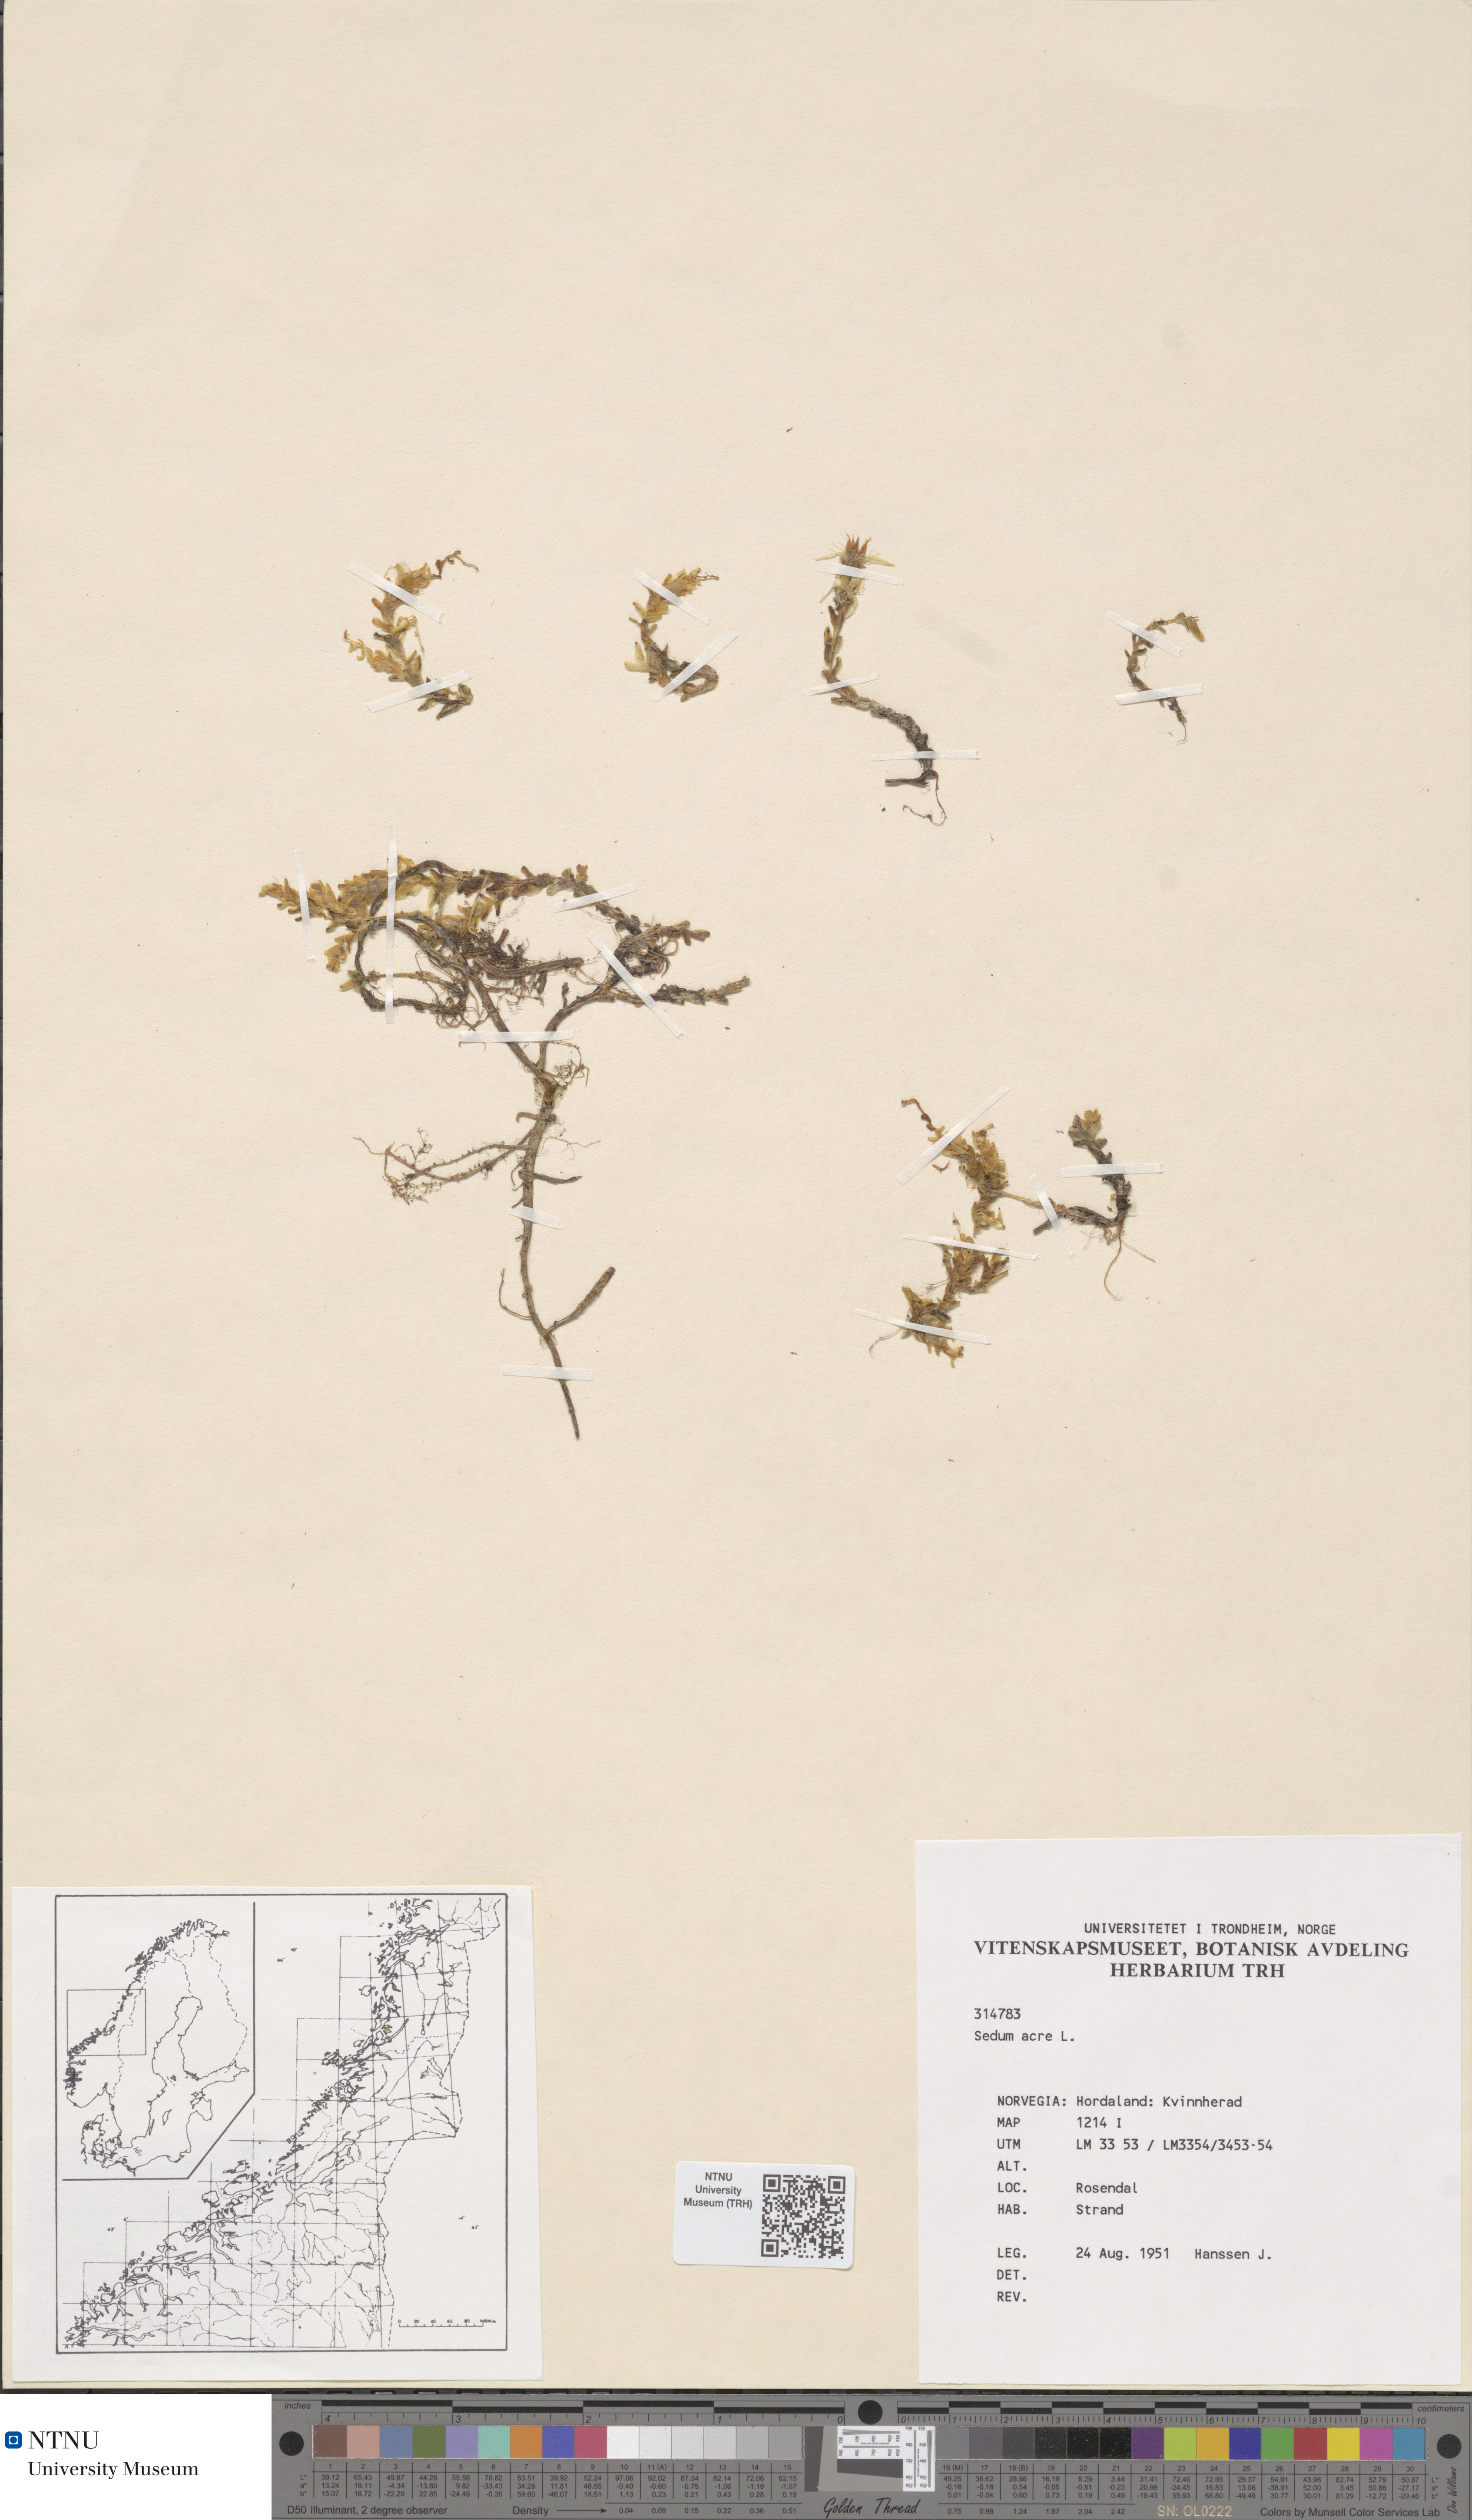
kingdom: Plantae
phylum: Tracheophyta
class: Magnoliopsida
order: Saxifragales
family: Crassulaceae
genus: Sedum
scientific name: Sedum acre
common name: Biting stonecrop
